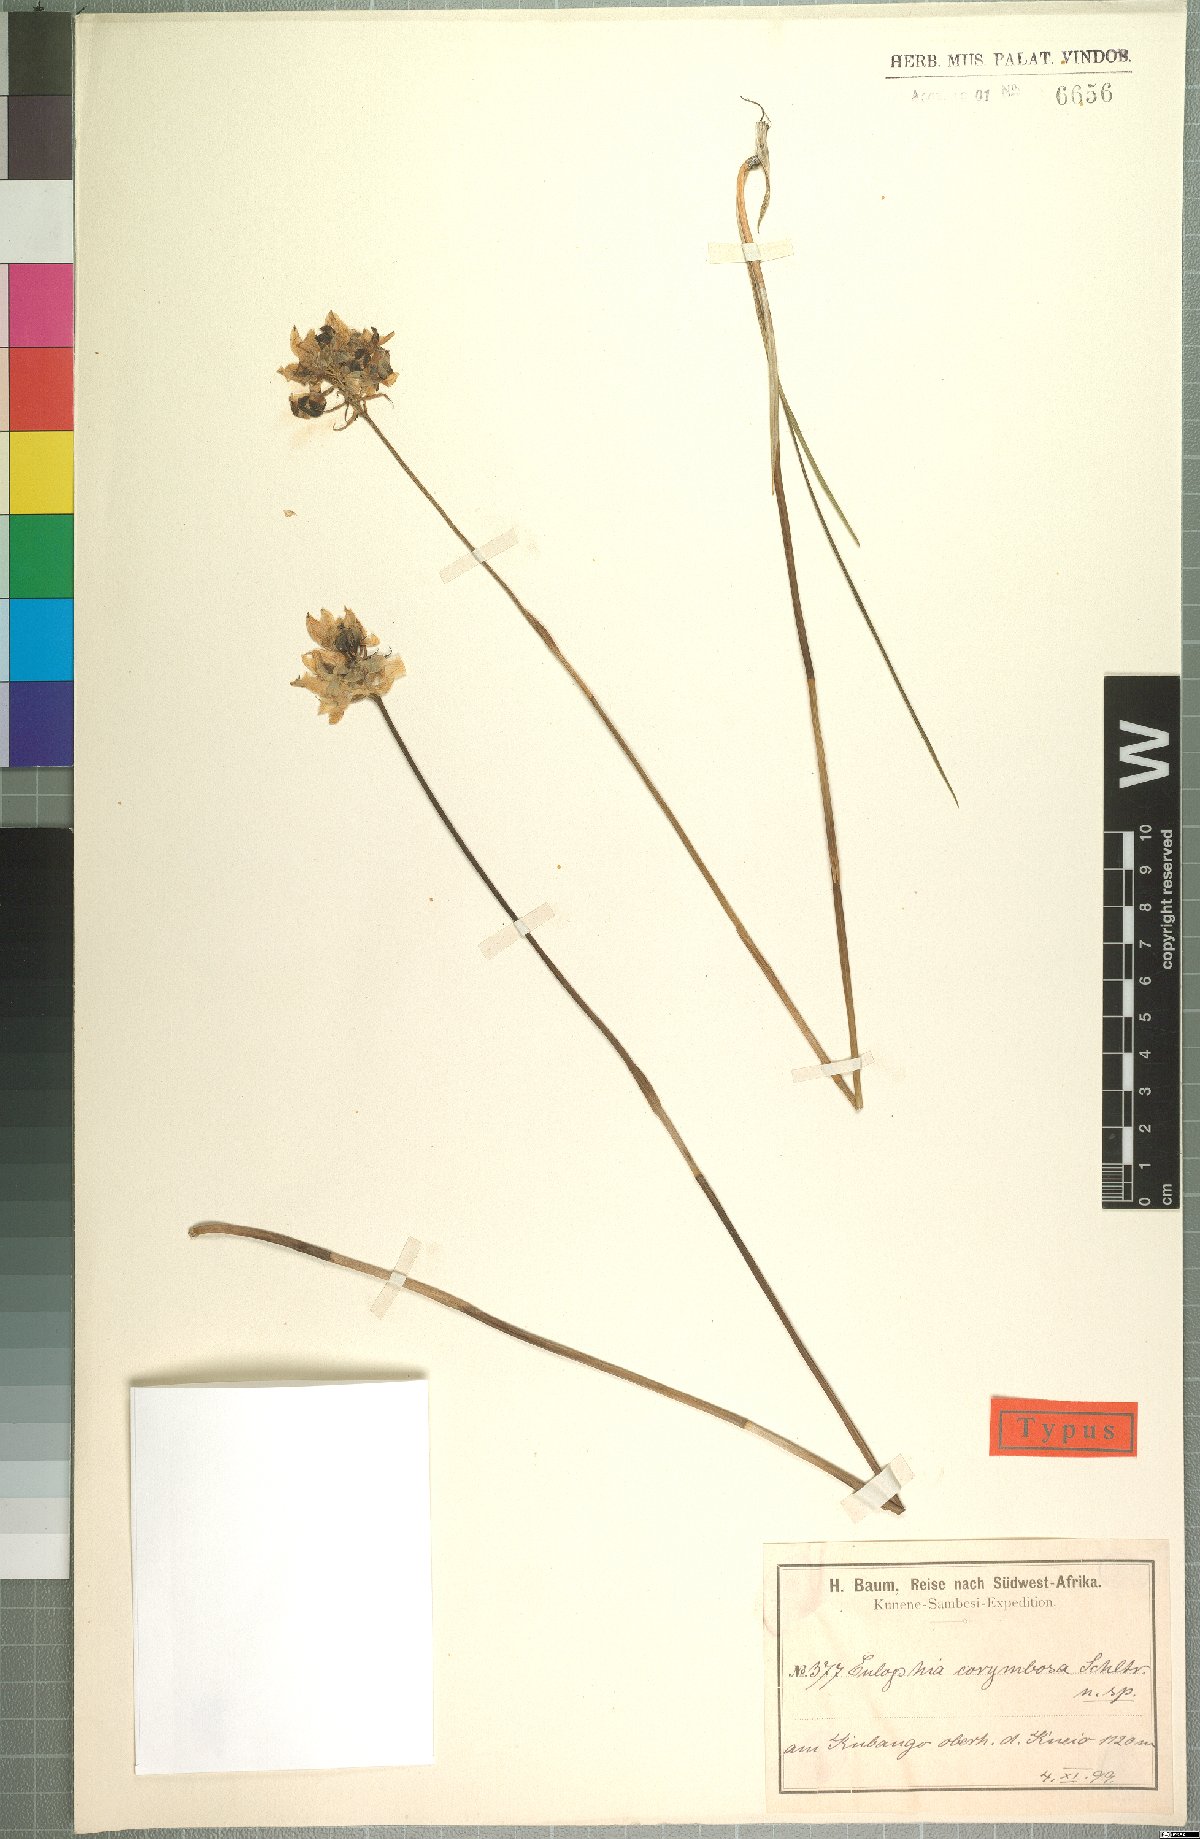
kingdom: Plantae
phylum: Tracheophyta
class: Liliopsida
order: Asparagales
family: Orchidaceae
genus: Eulophia
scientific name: Eulophia corymbosa
